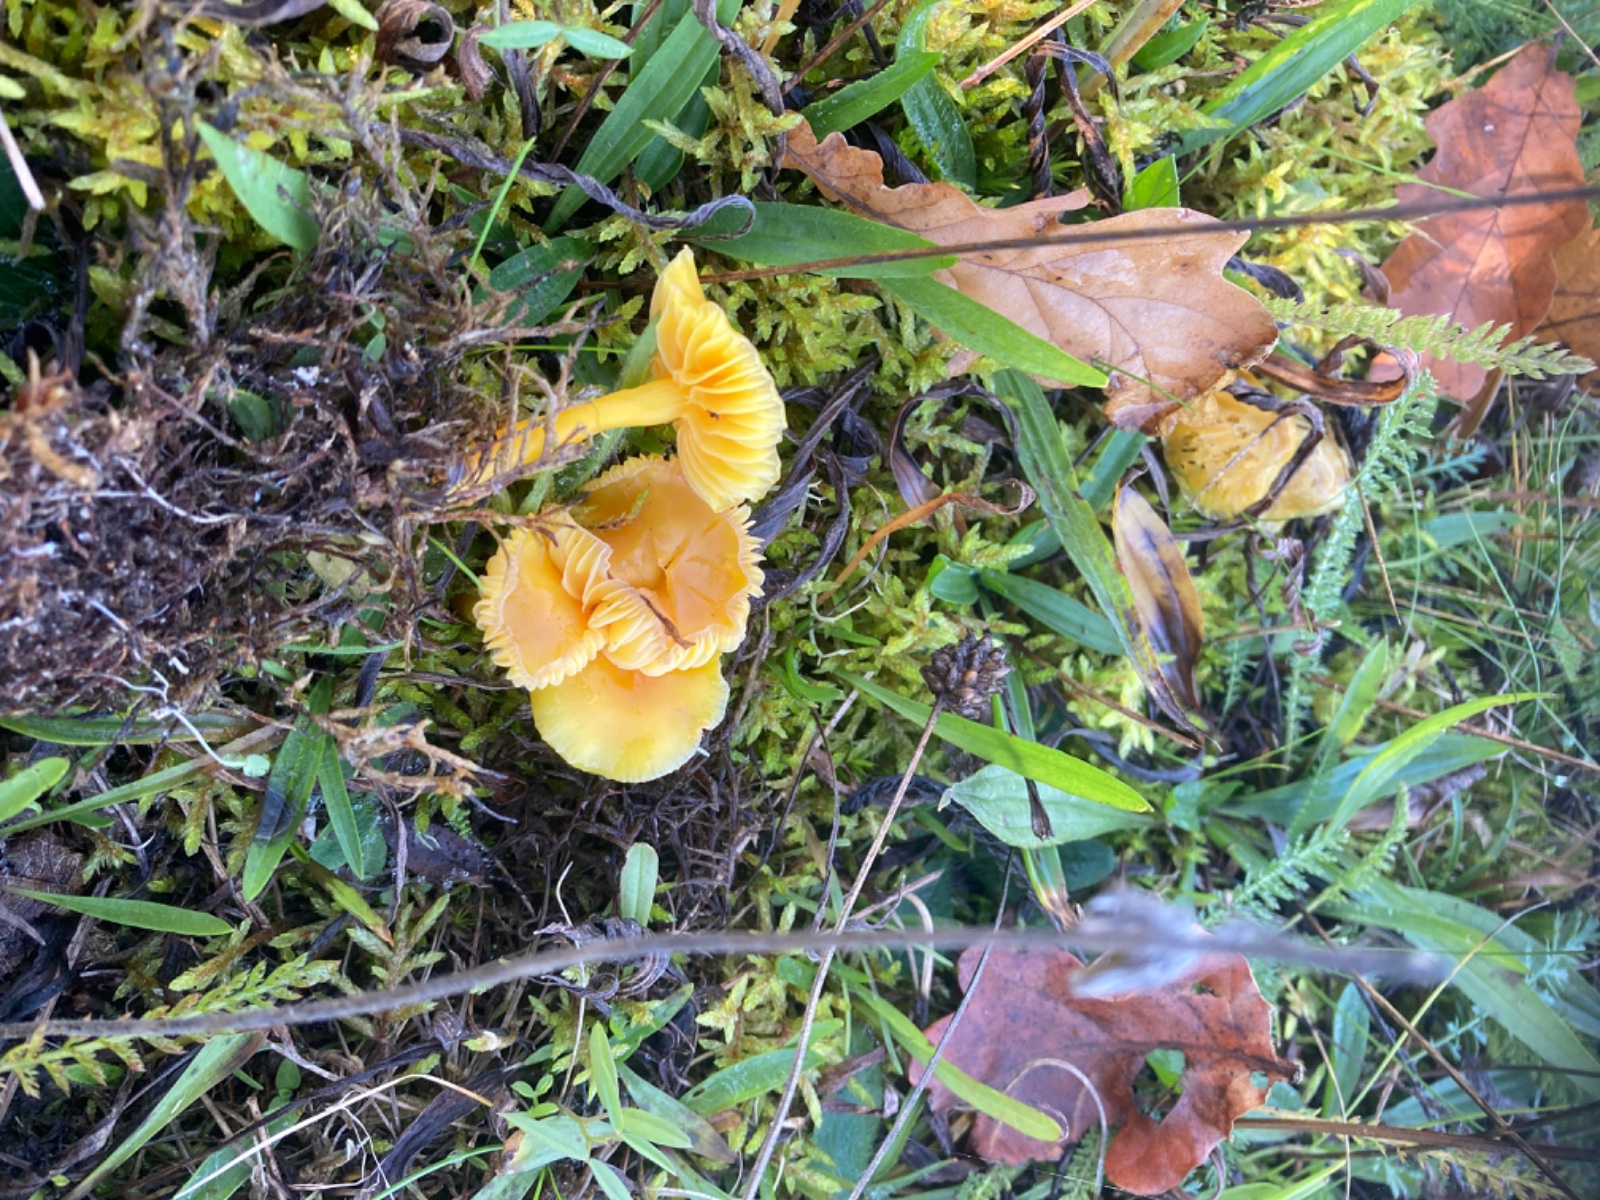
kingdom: Fungi
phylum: Basidiomycota
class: Agaricomycetes
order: Agaricales
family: Hygrophoraceae
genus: Hygrocybe
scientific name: Hygrocybe ceracea
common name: voksgul vokshat
